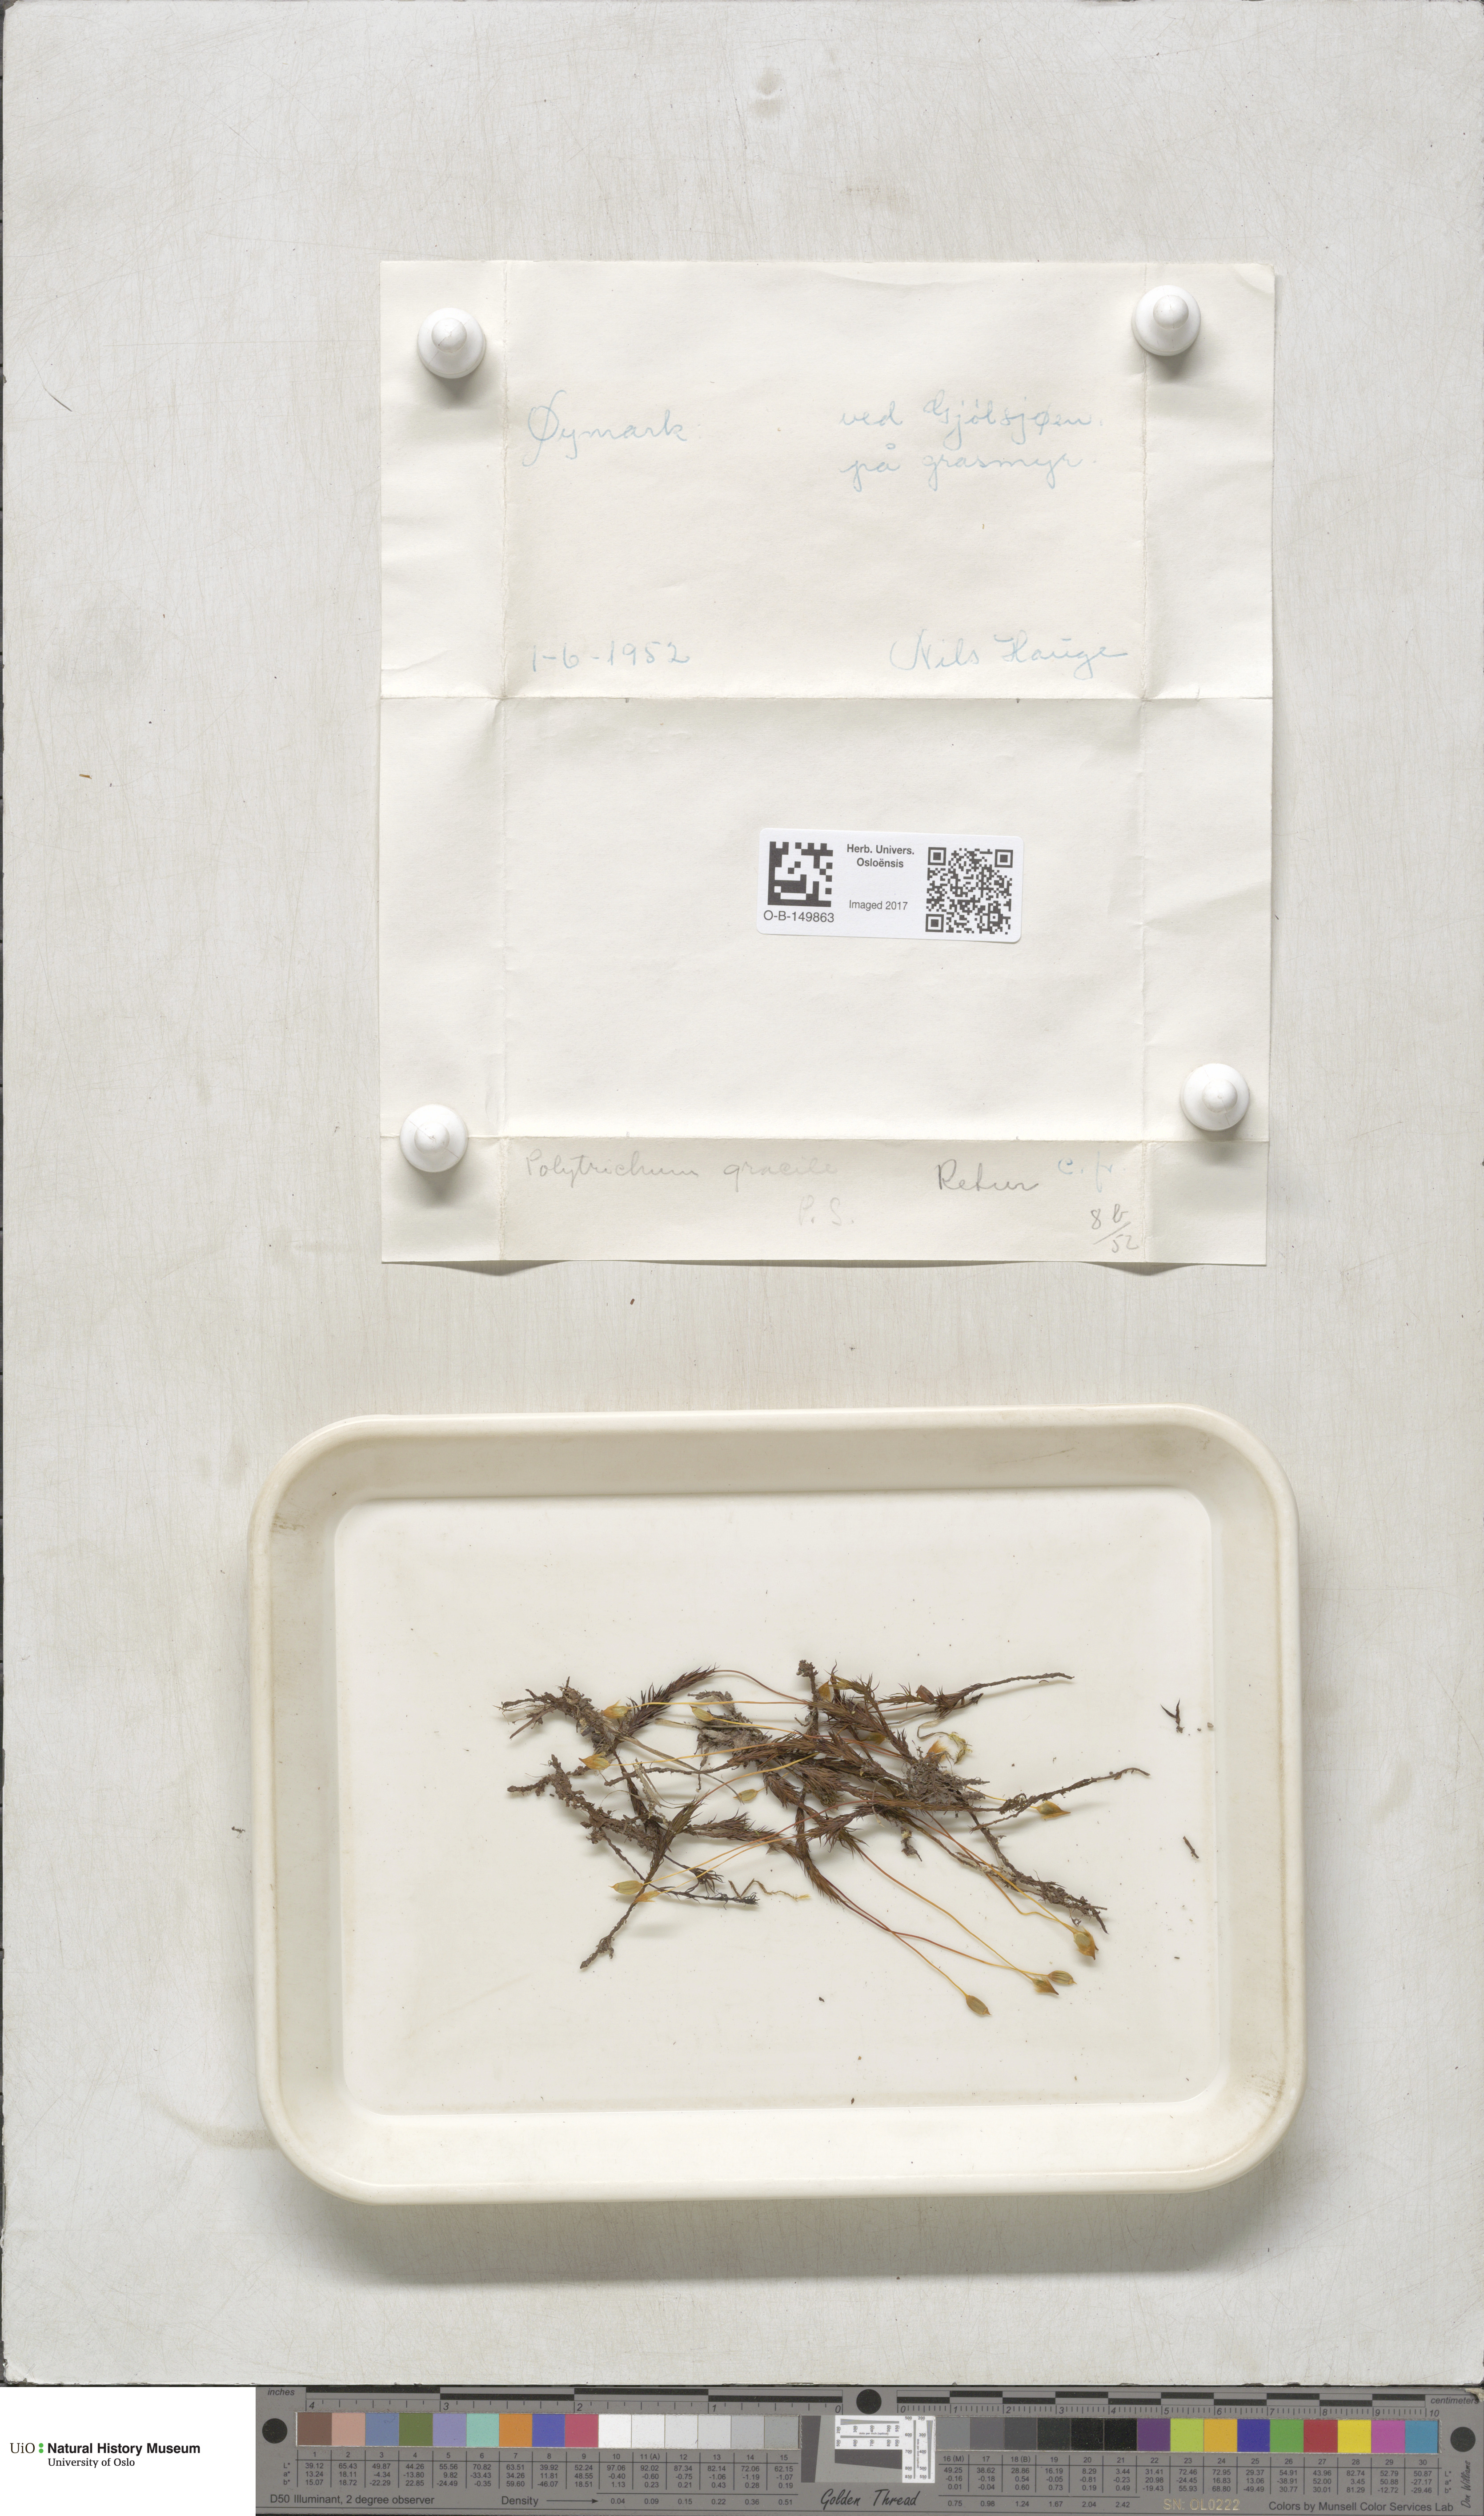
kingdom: Plantae
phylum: Bryophyta
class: Polytrichopsida
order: Polytrichales
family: Polytrichaceae
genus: Polytrichum
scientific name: Polytrichum longisetum
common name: Long-stalked haircap moss
